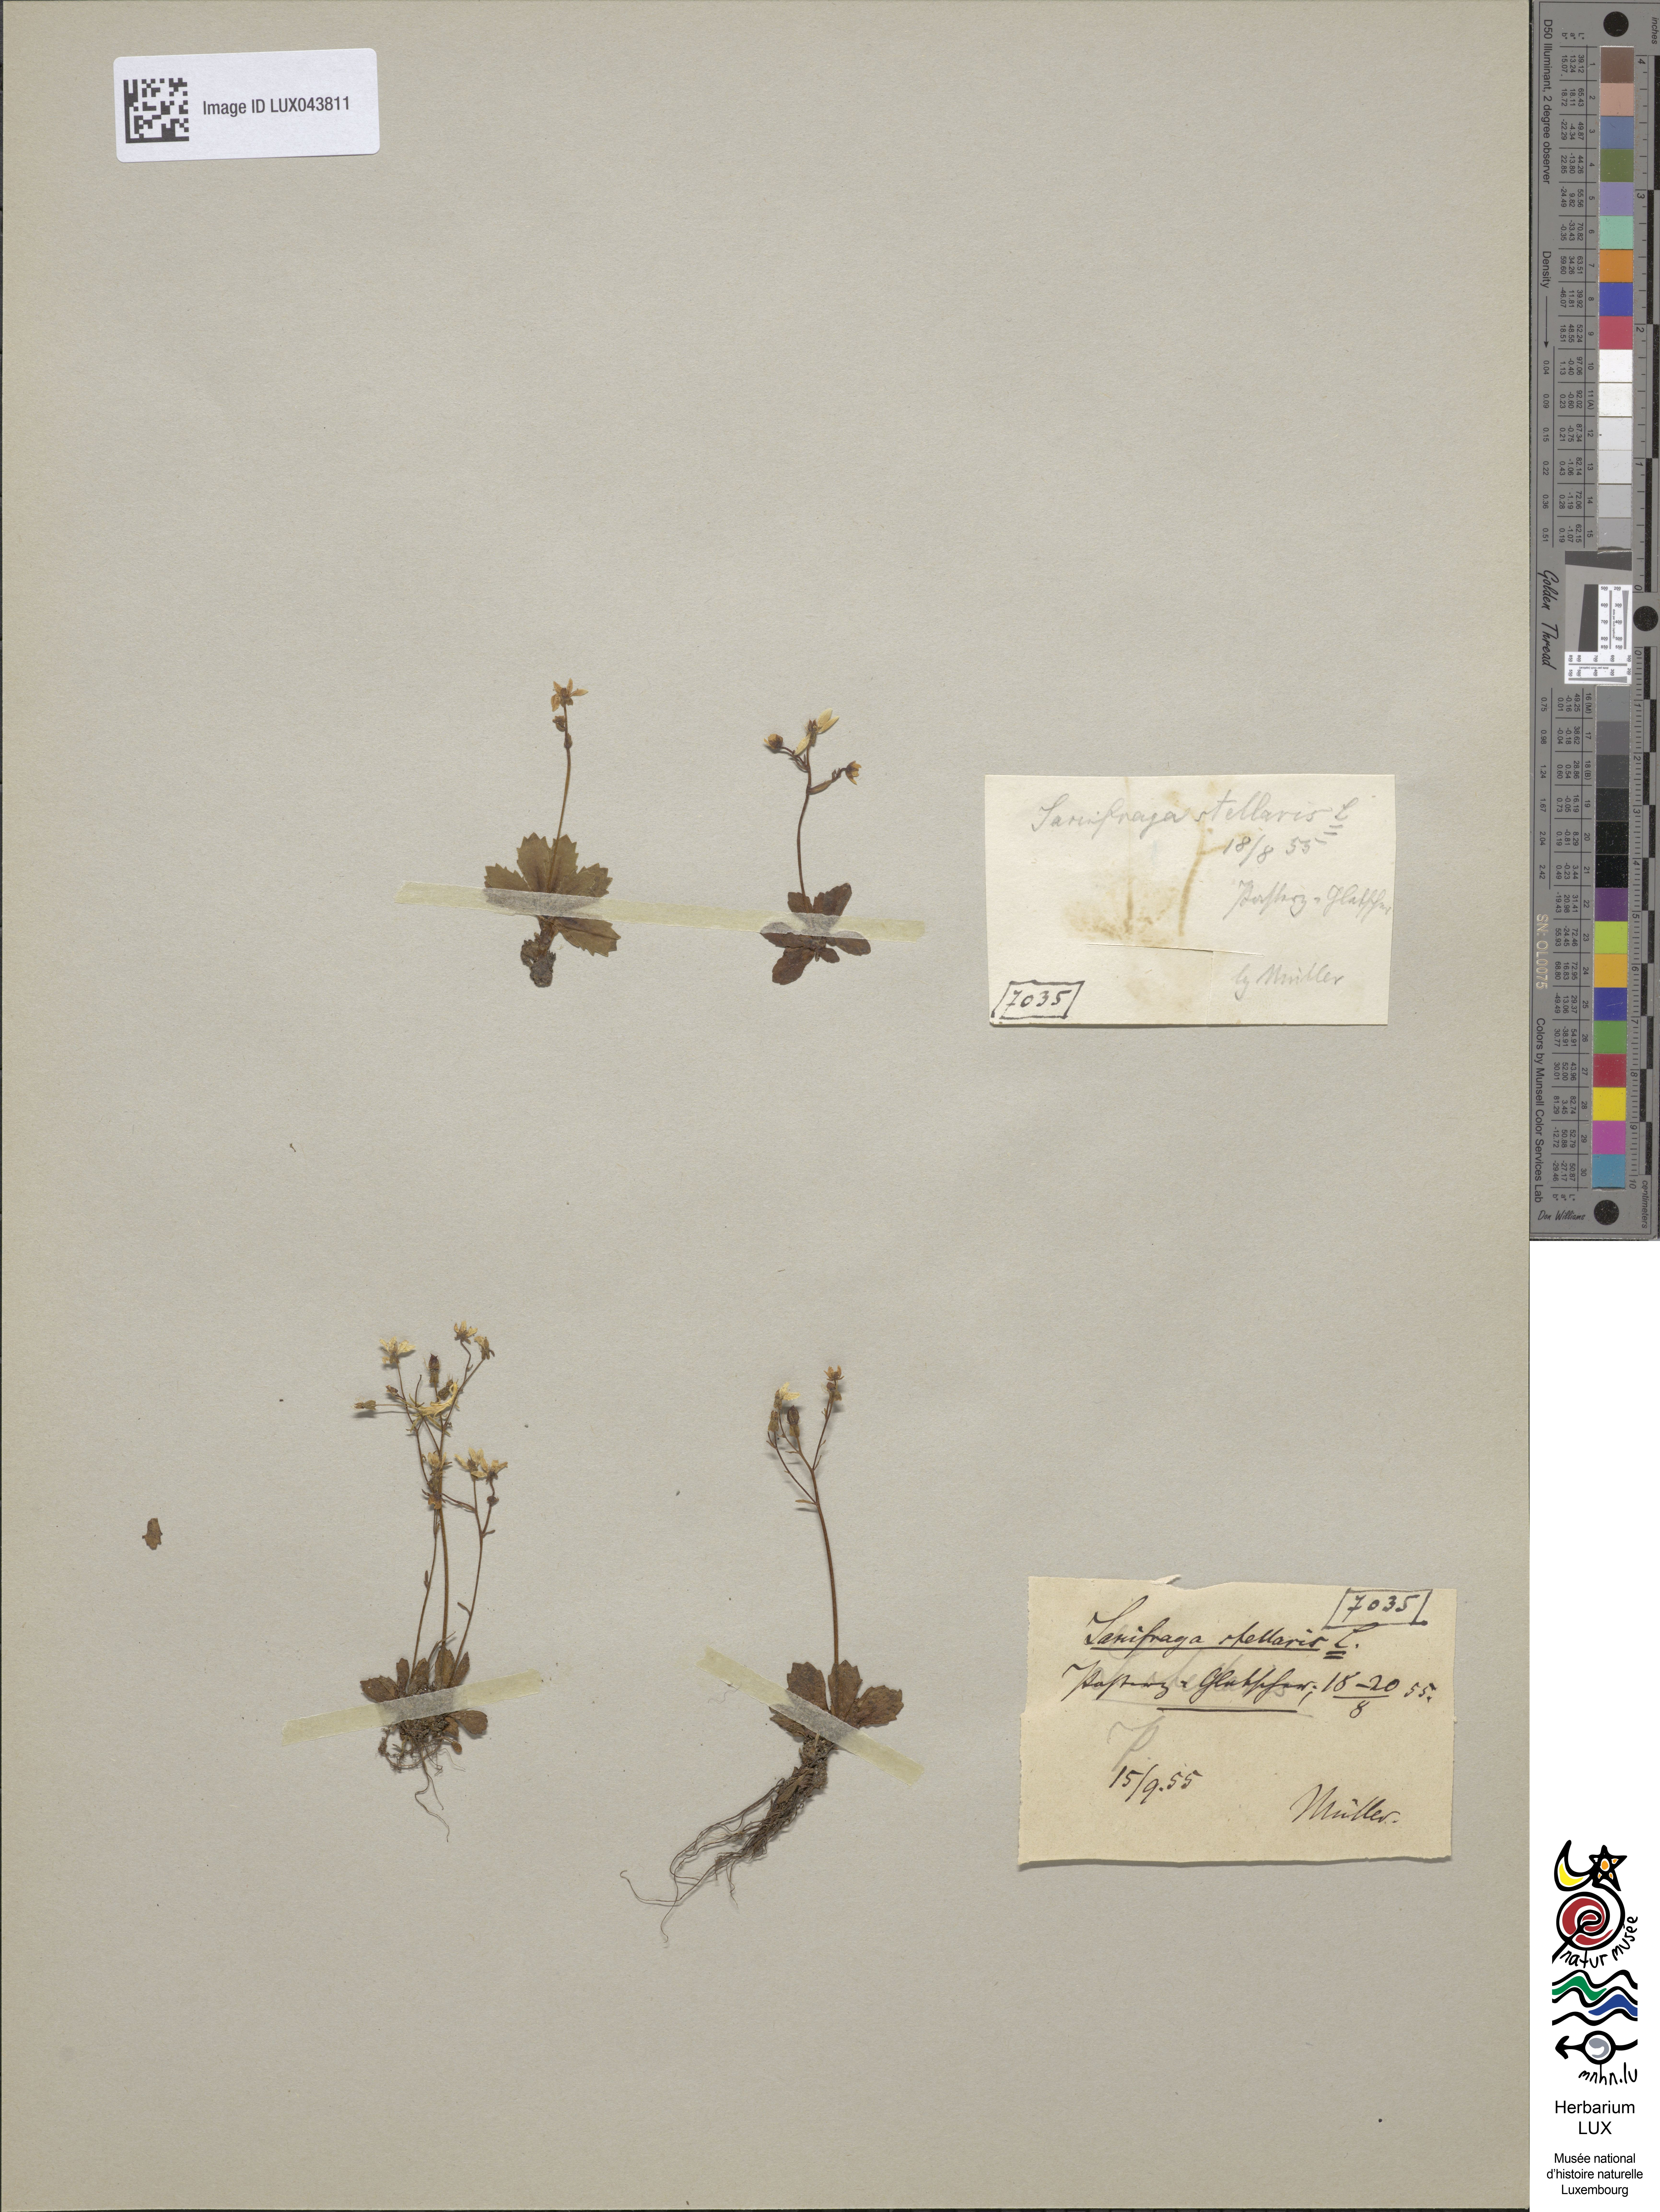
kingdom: Plantae
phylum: Tracheophyta
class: Magnoliopsida
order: Saxifragales
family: Saxifragaceae
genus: Micranthes
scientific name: Micranthes stellaris
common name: Starry saxifrage
